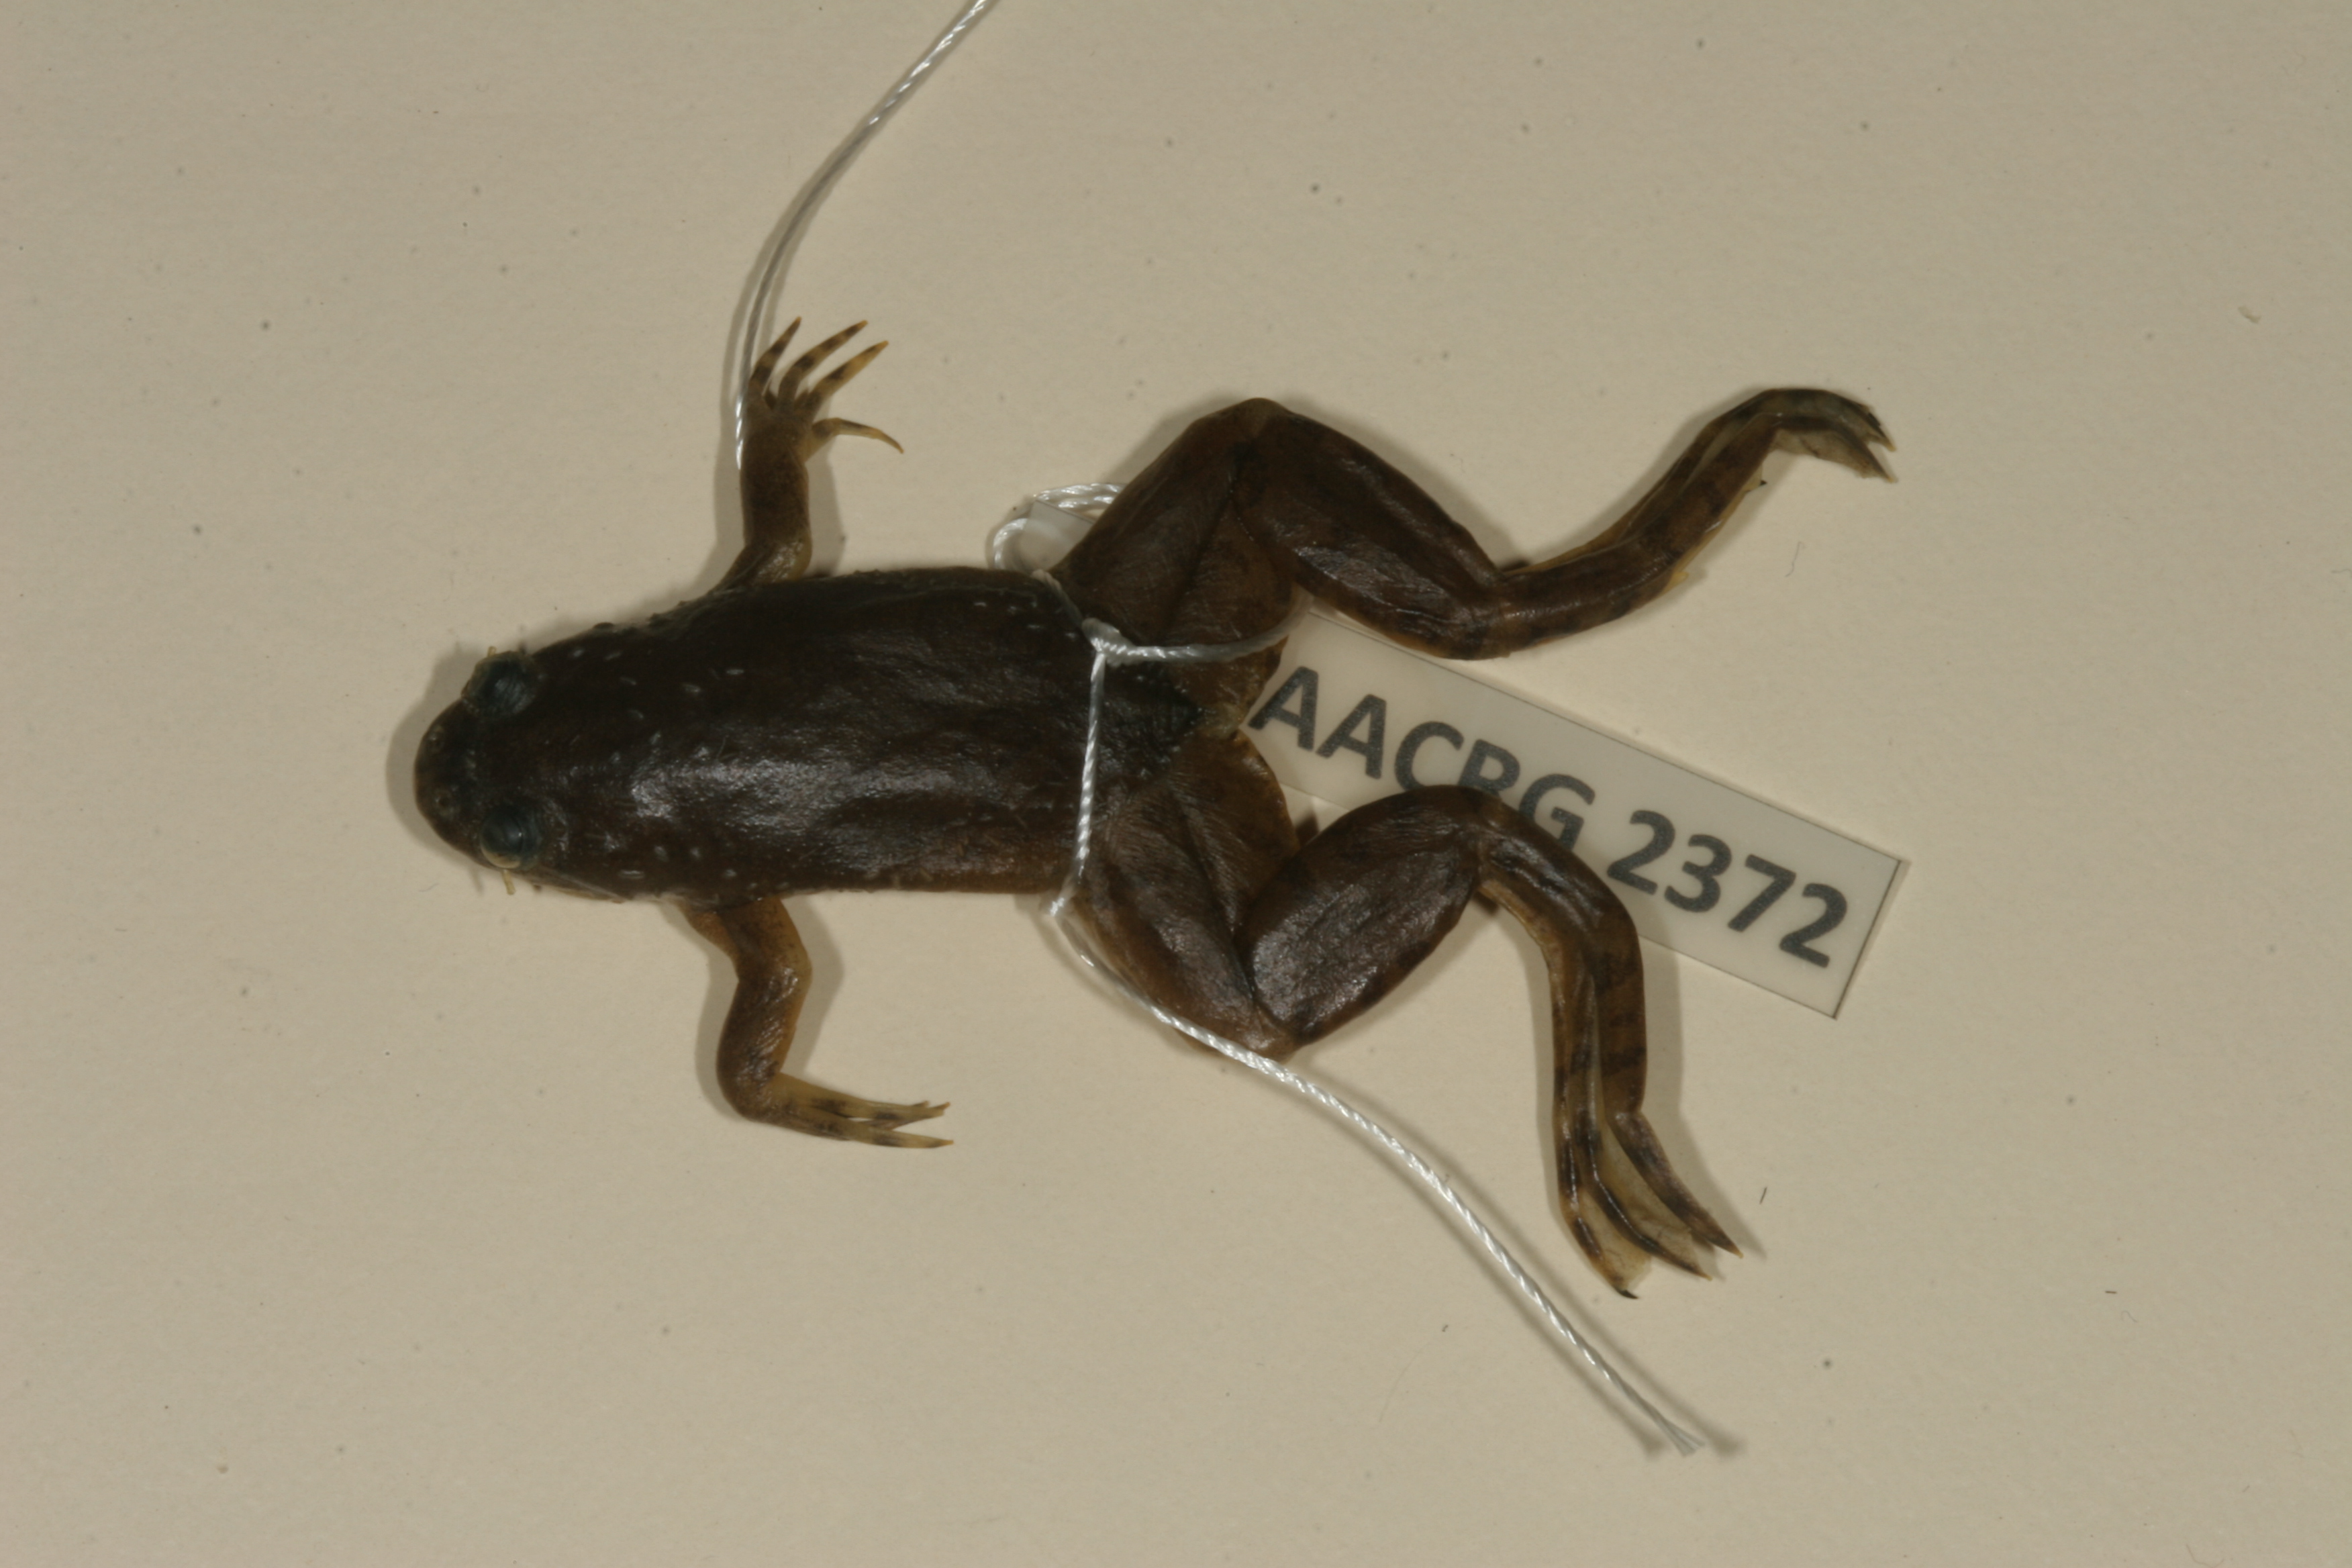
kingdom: Animalia
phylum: Chordata
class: Amphibia
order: Anura
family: Pipidae
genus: Xenopus
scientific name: Xenopus muelleri
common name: Muller's clawed frog
